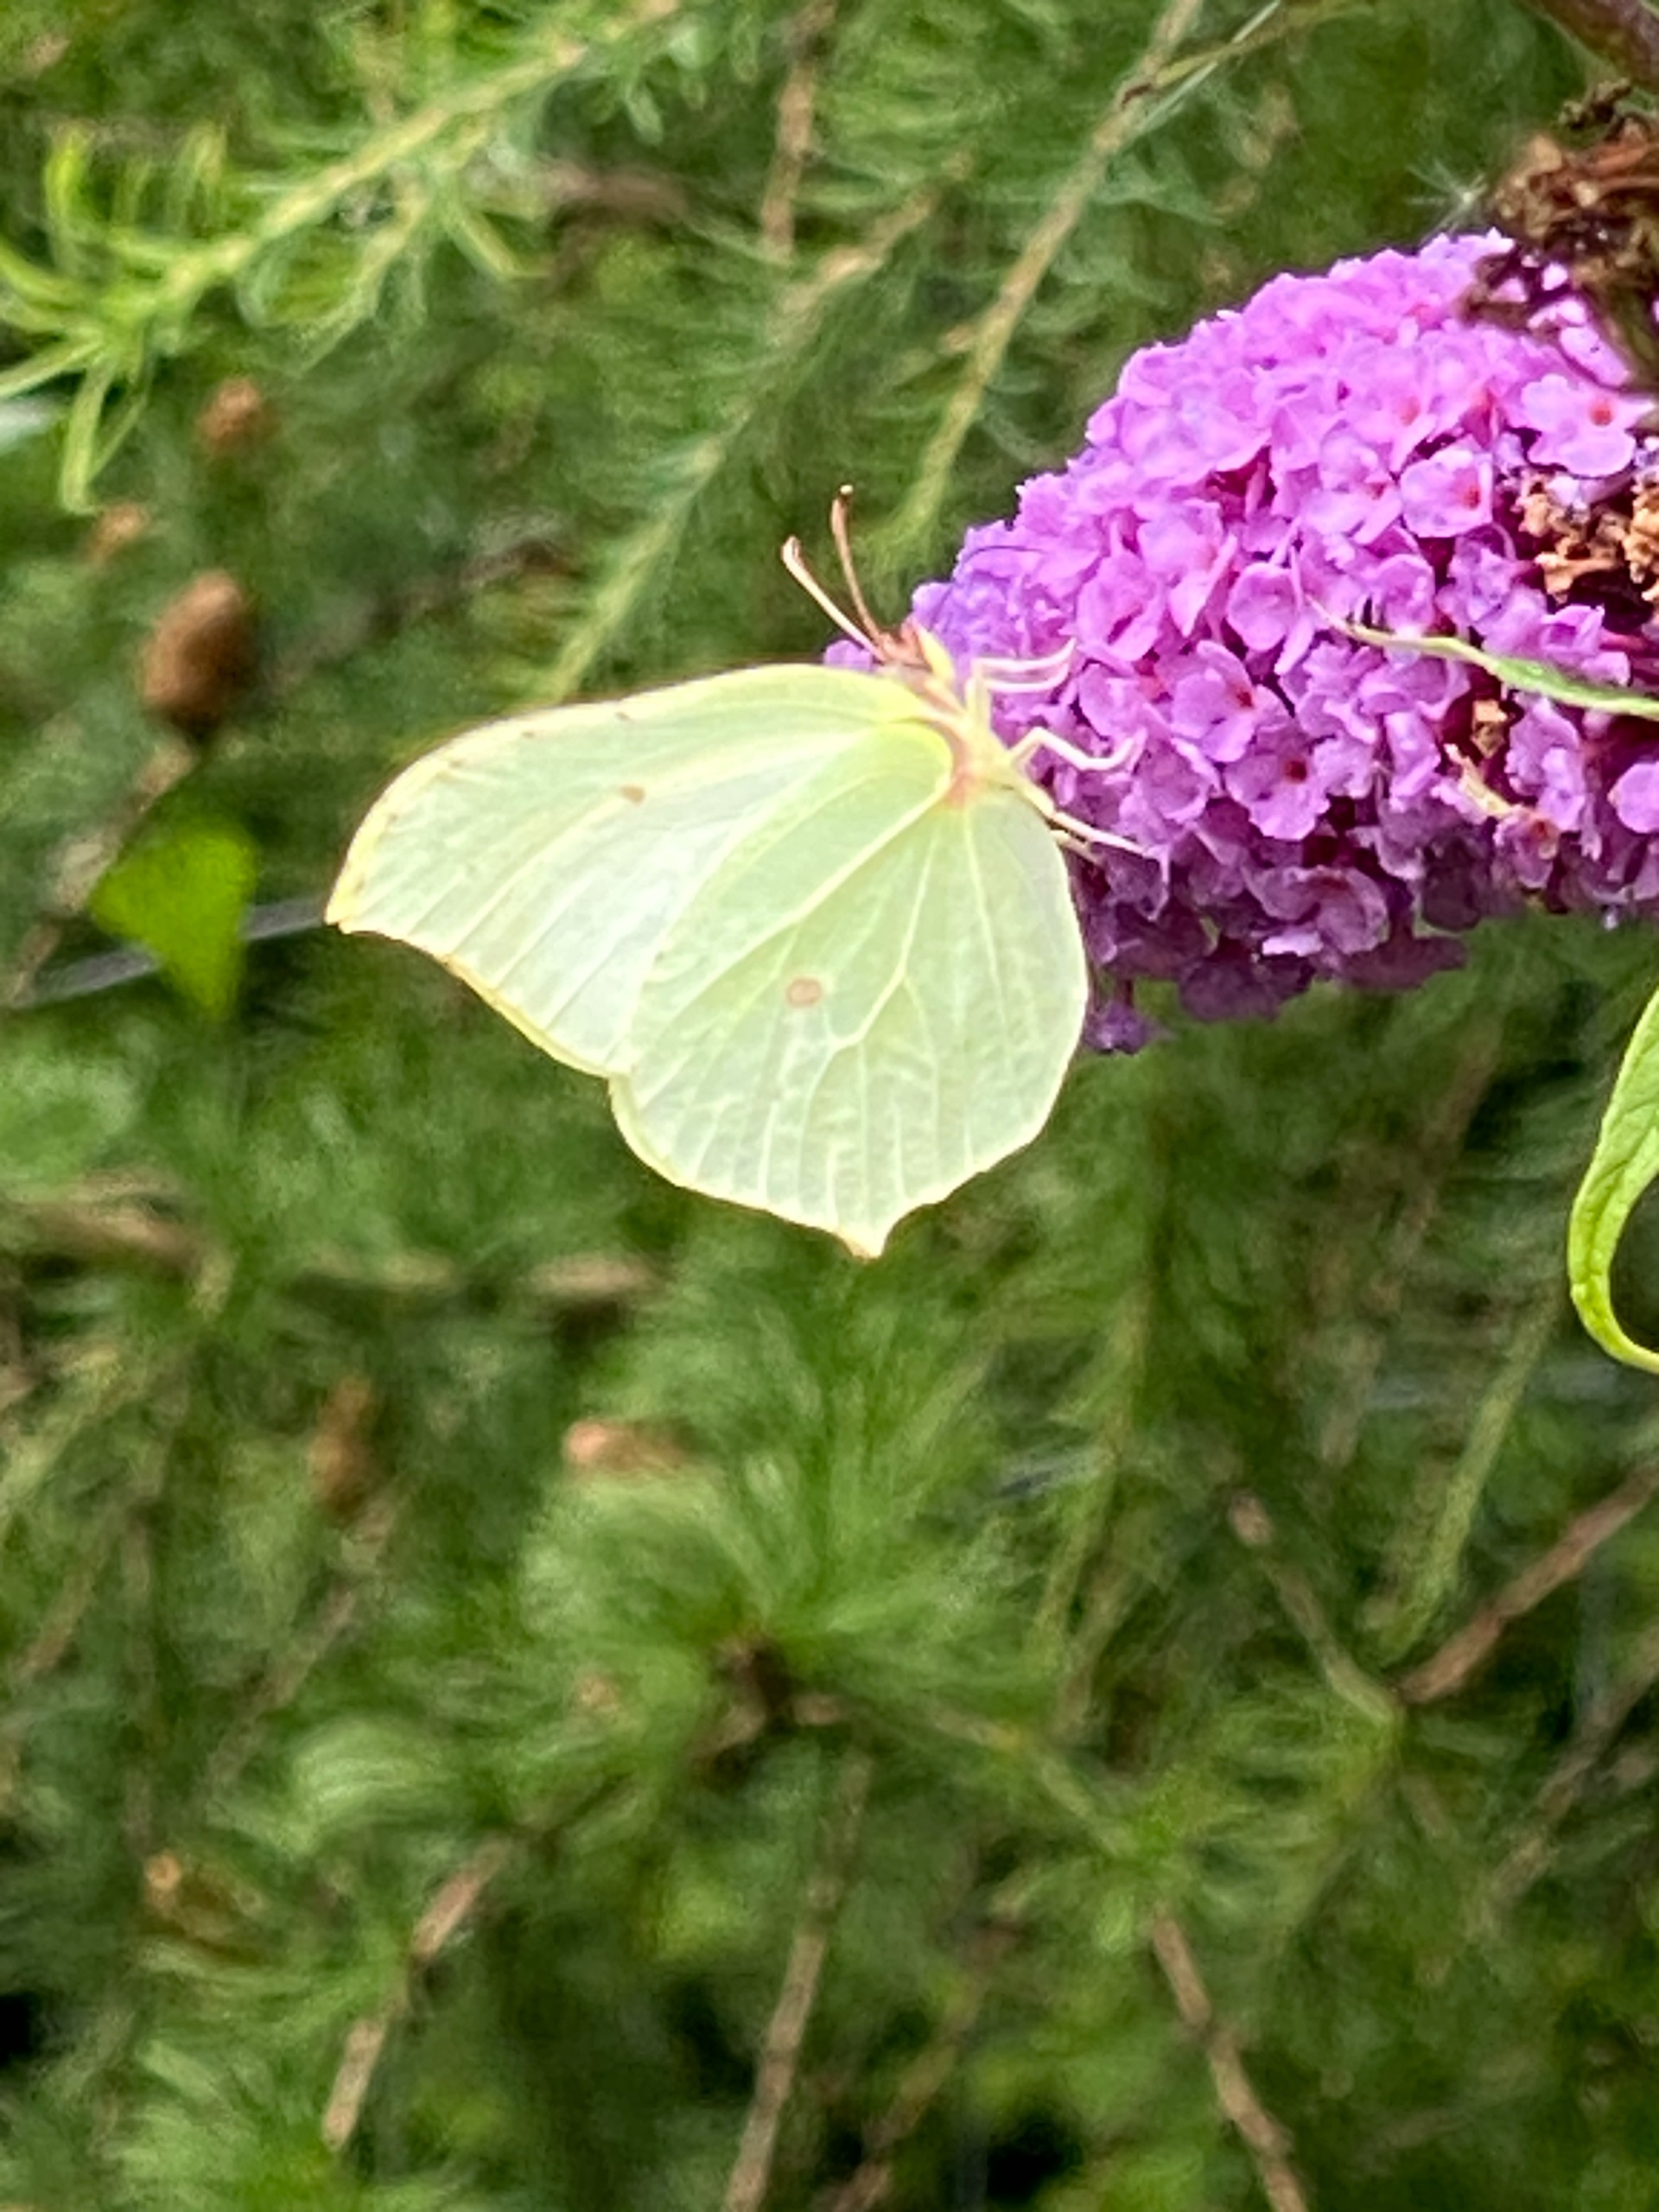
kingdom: Animalia
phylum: Arthropoda
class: Insecta
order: Lepidoptera
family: Pieridae
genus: Gonepteryx
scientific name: Gonepteryx rhamni
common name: Citronsommerfugl
